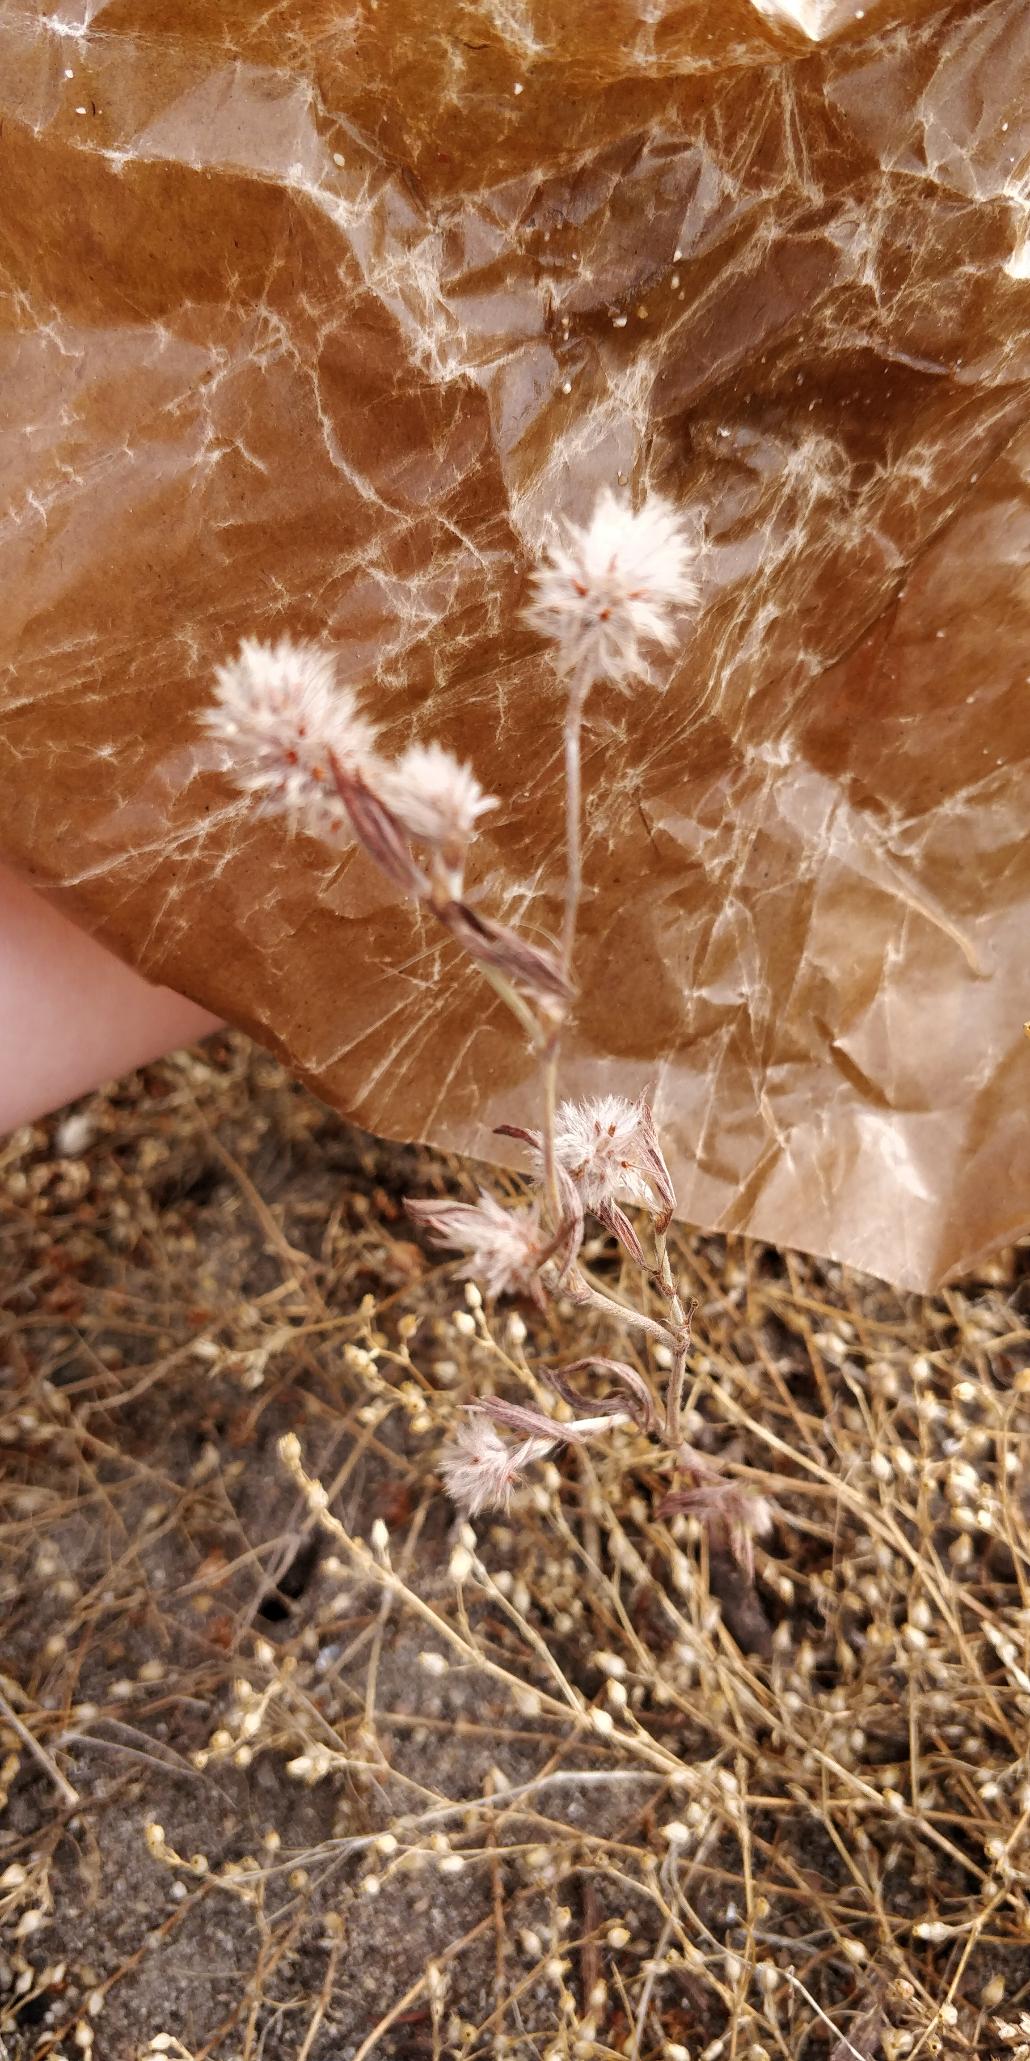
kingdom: Plantae
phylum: Tracheophyta
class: Magnoliopsida
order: Fabales
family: Fabaceae
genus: Trifolium
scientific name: Trifolium arvense
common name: Hare-kløver
